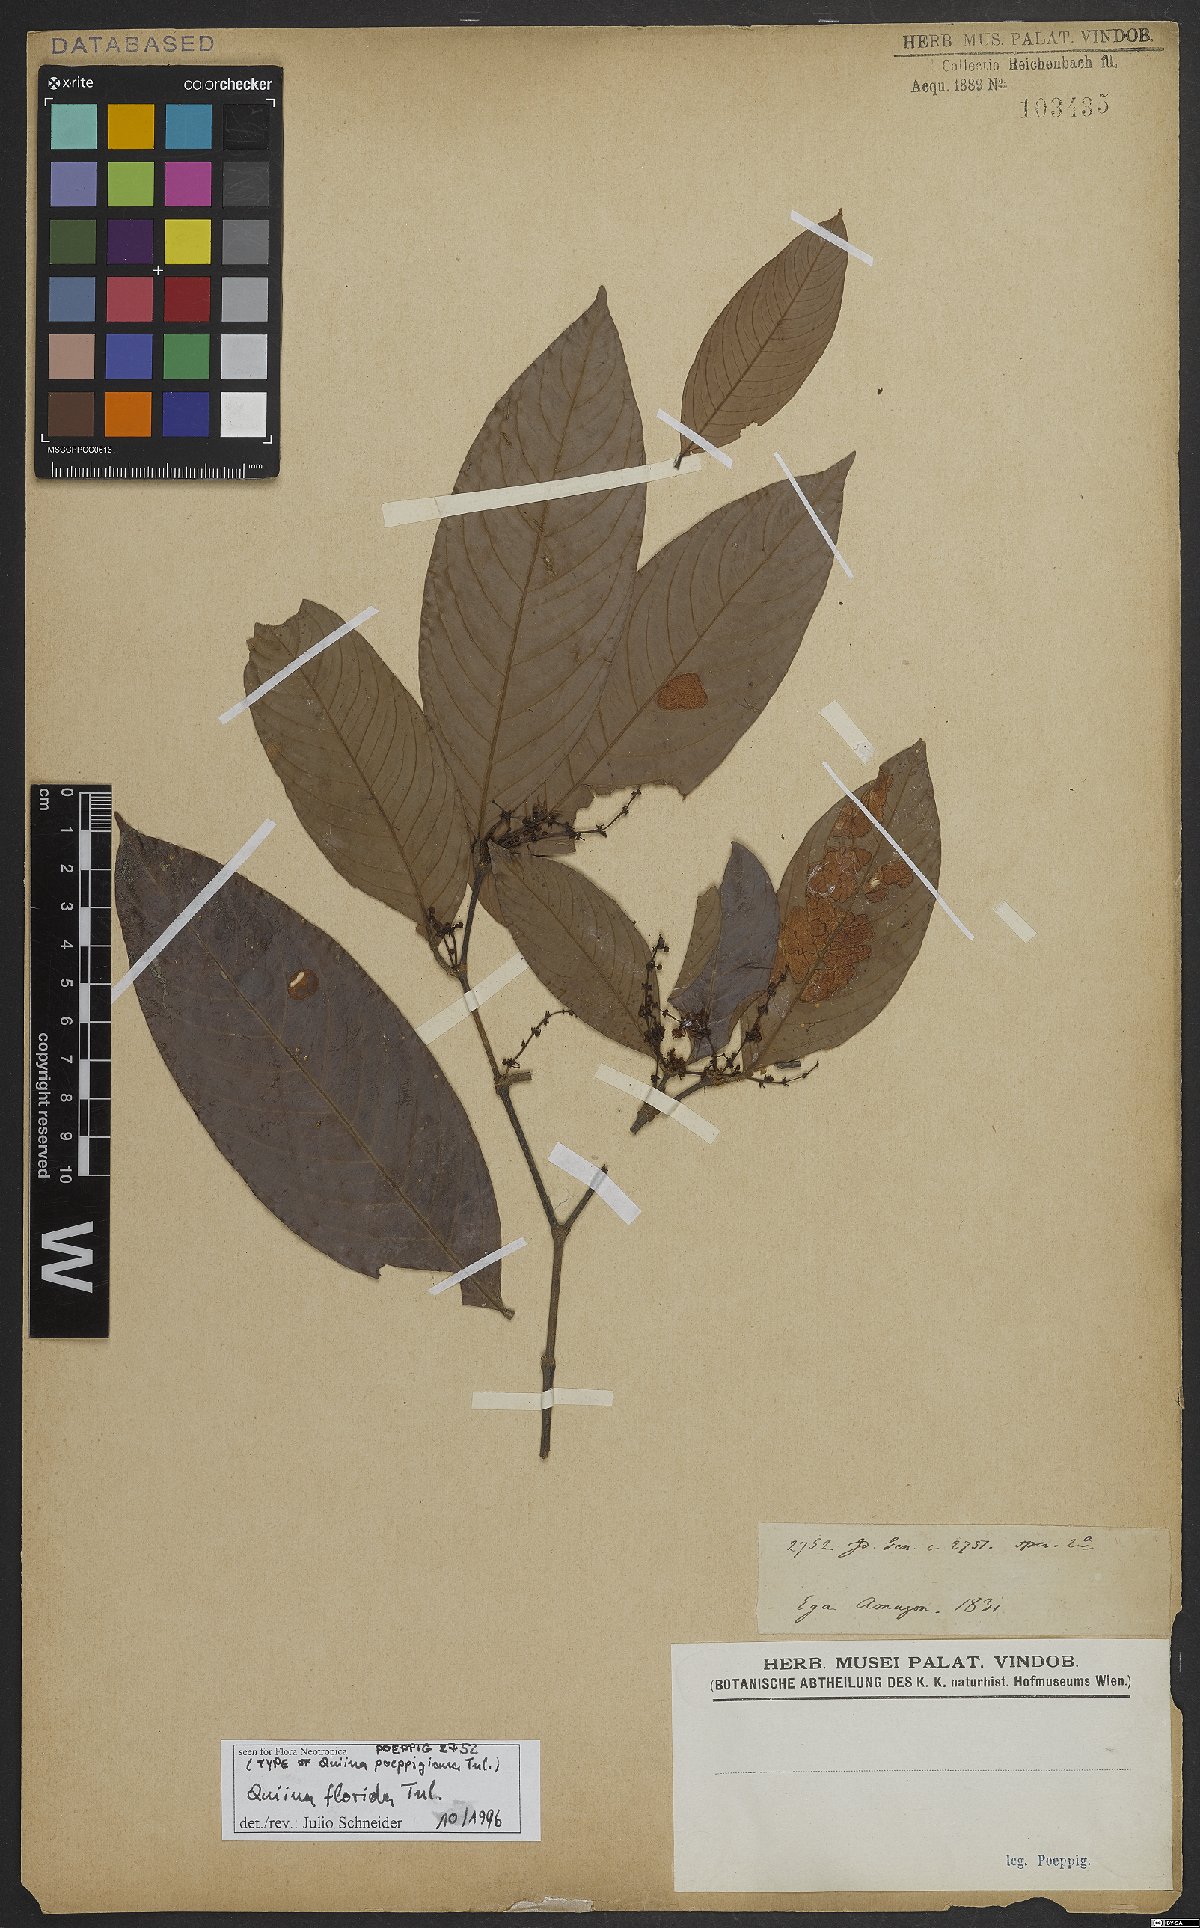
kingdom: Plantae
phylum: Tracheophyta
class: Magnoliopsida
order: Malpighiales
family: Quiinaceae
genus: Quiina
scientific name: Quiina florida
